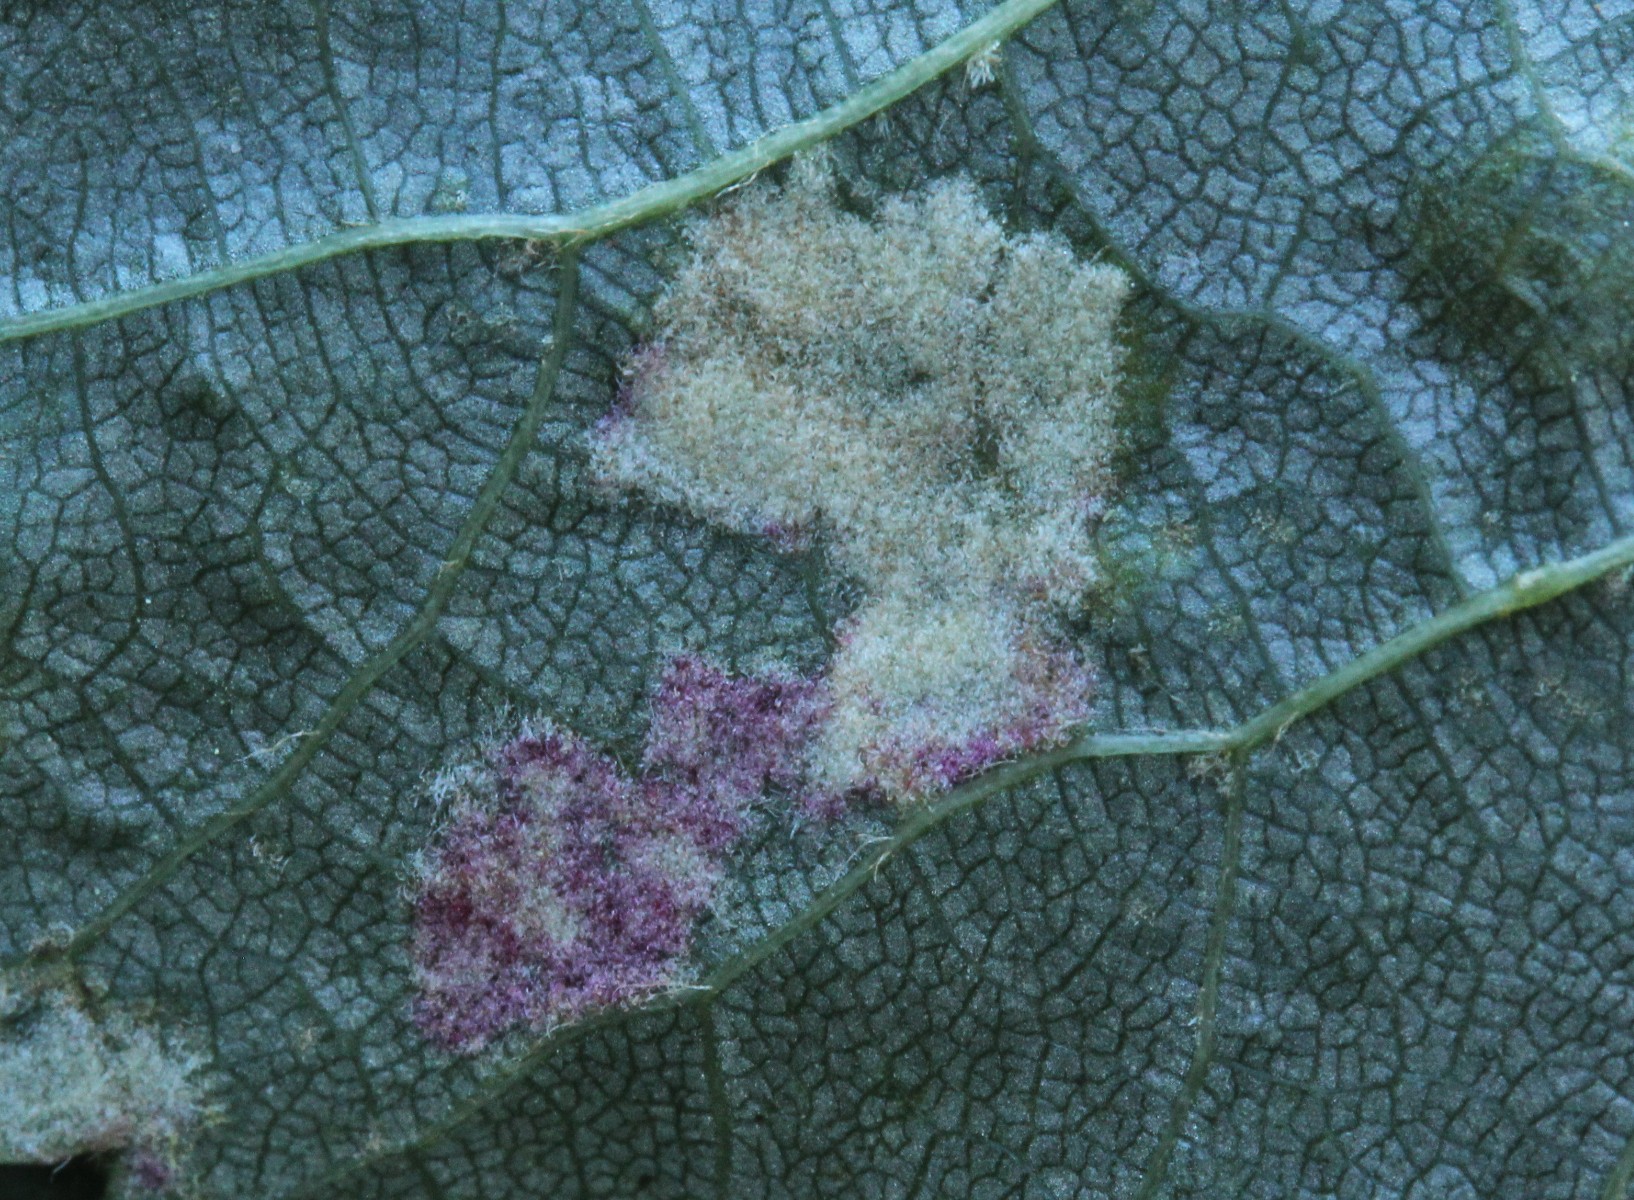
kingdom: Fungi
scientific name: Fungi
